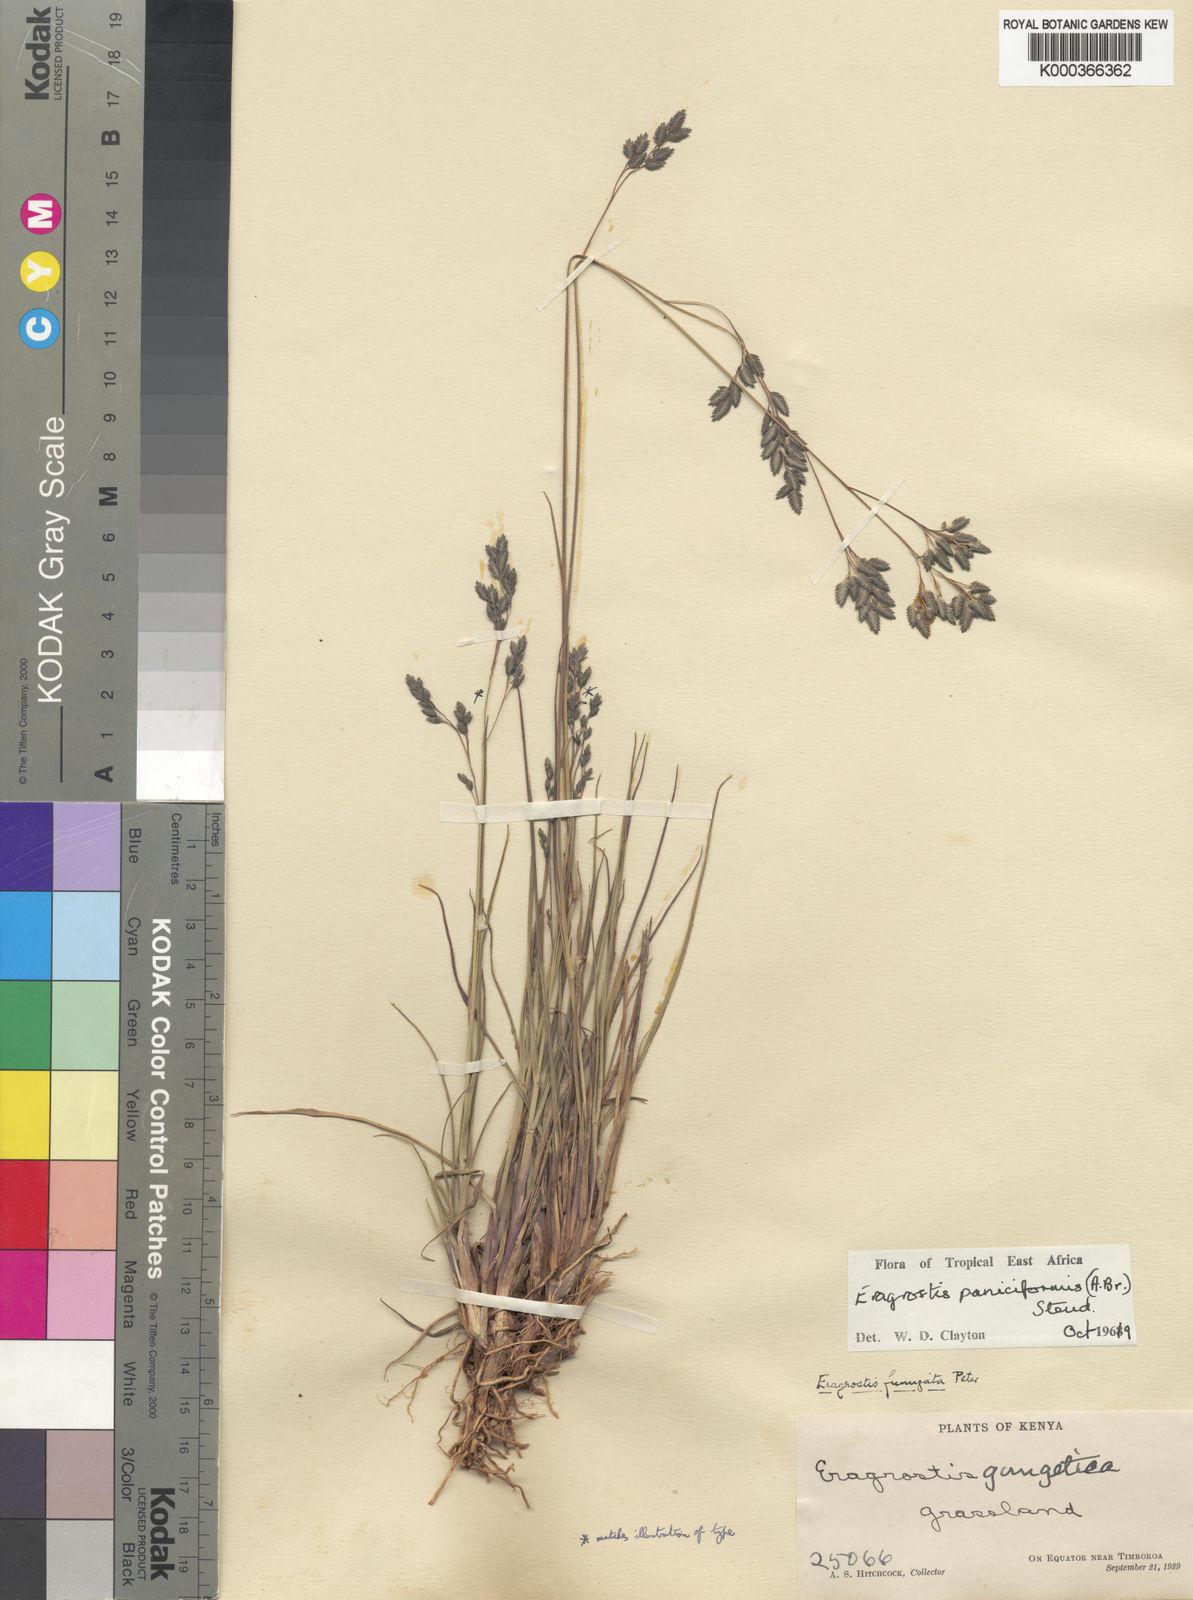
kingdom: Plantae
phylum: Tracheophyta
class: Liliopsida
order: Poales
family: Poaceae
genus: Eragrostis
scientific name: Eragrostis paniciformis
